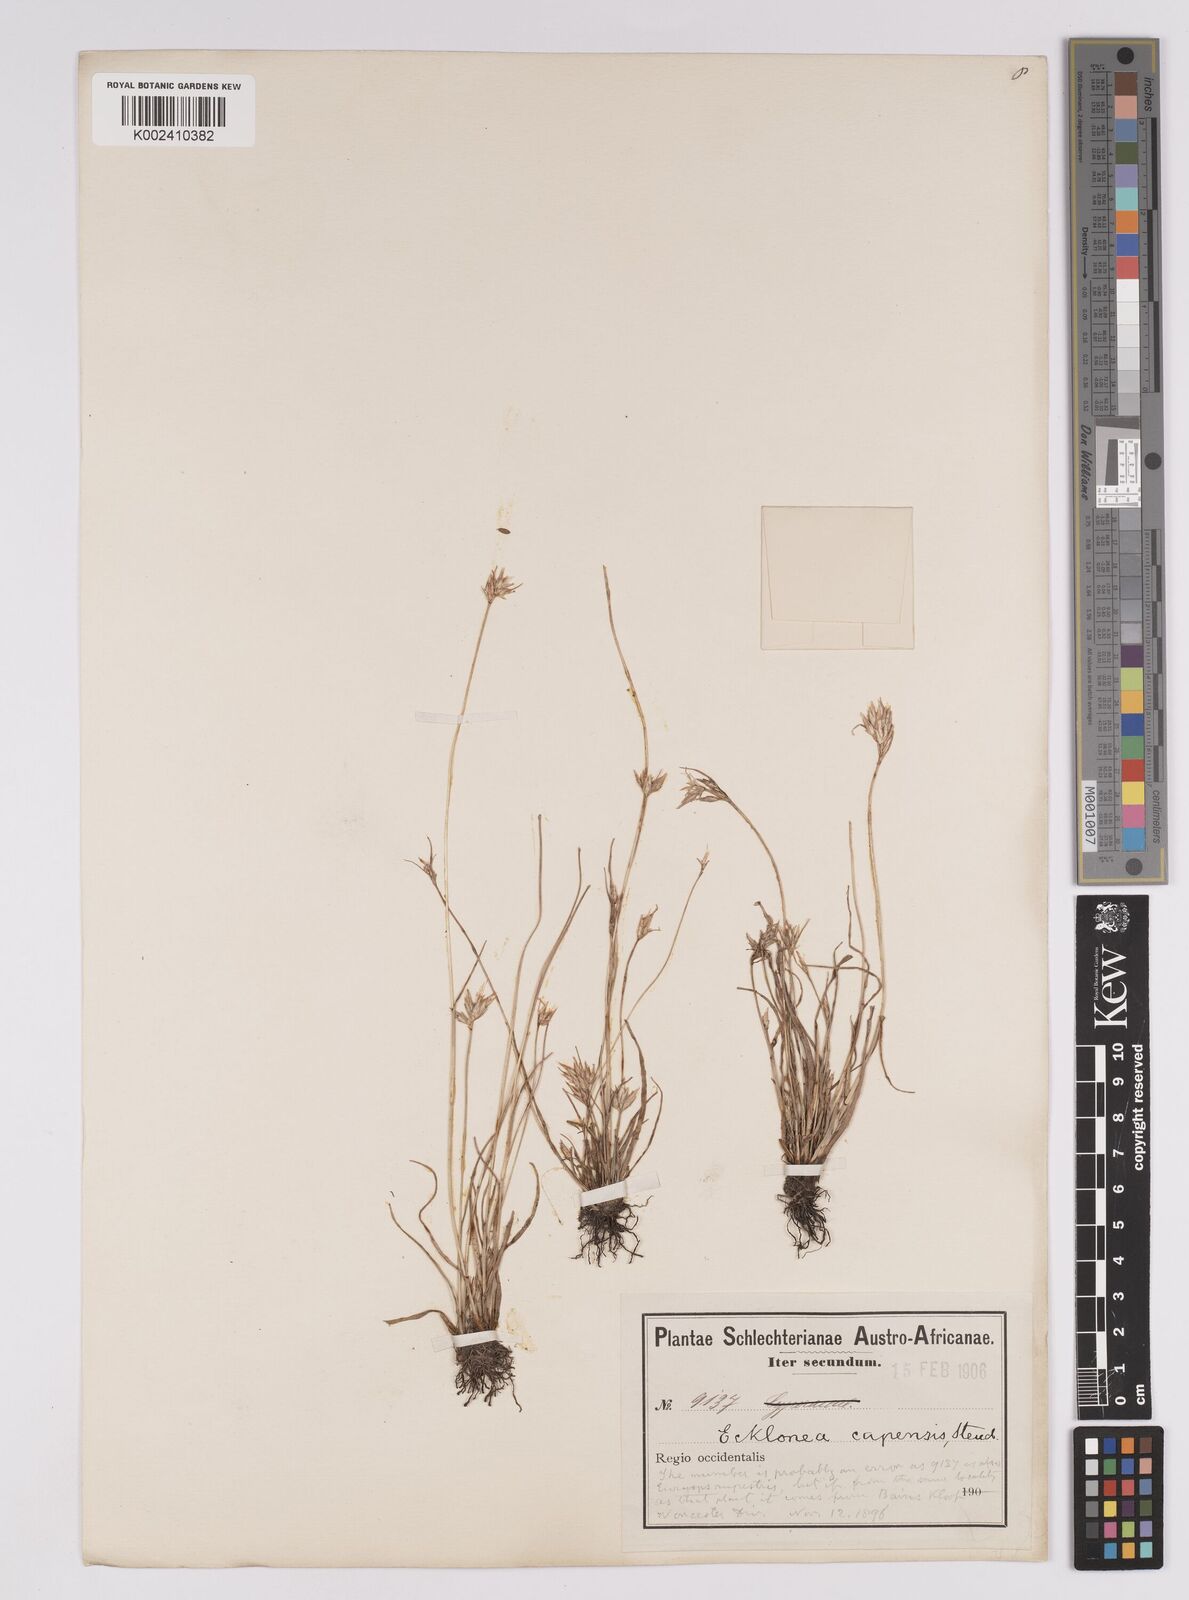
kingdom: Plantae
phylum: Tracheophyta
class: Liliopsida
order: Poales
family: Cyperaceae
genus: Trianoptiles
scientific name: Trianoptiles capensis
